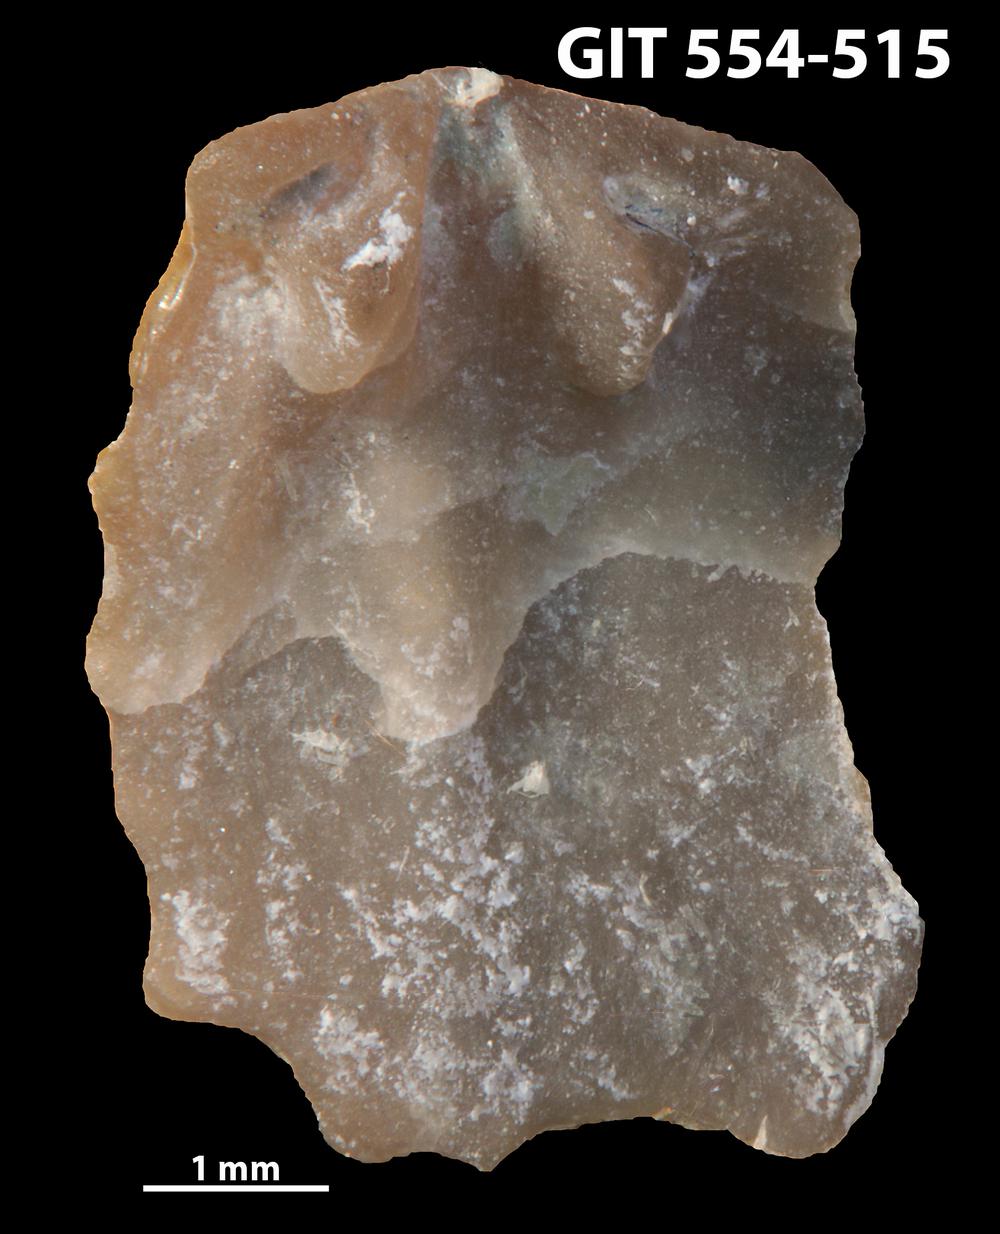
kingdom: Animalia
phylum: Brachiopoda
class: Rhynchonellata
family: Dalmanellidae
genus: Isorthis
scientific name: Isorthis parvulus
